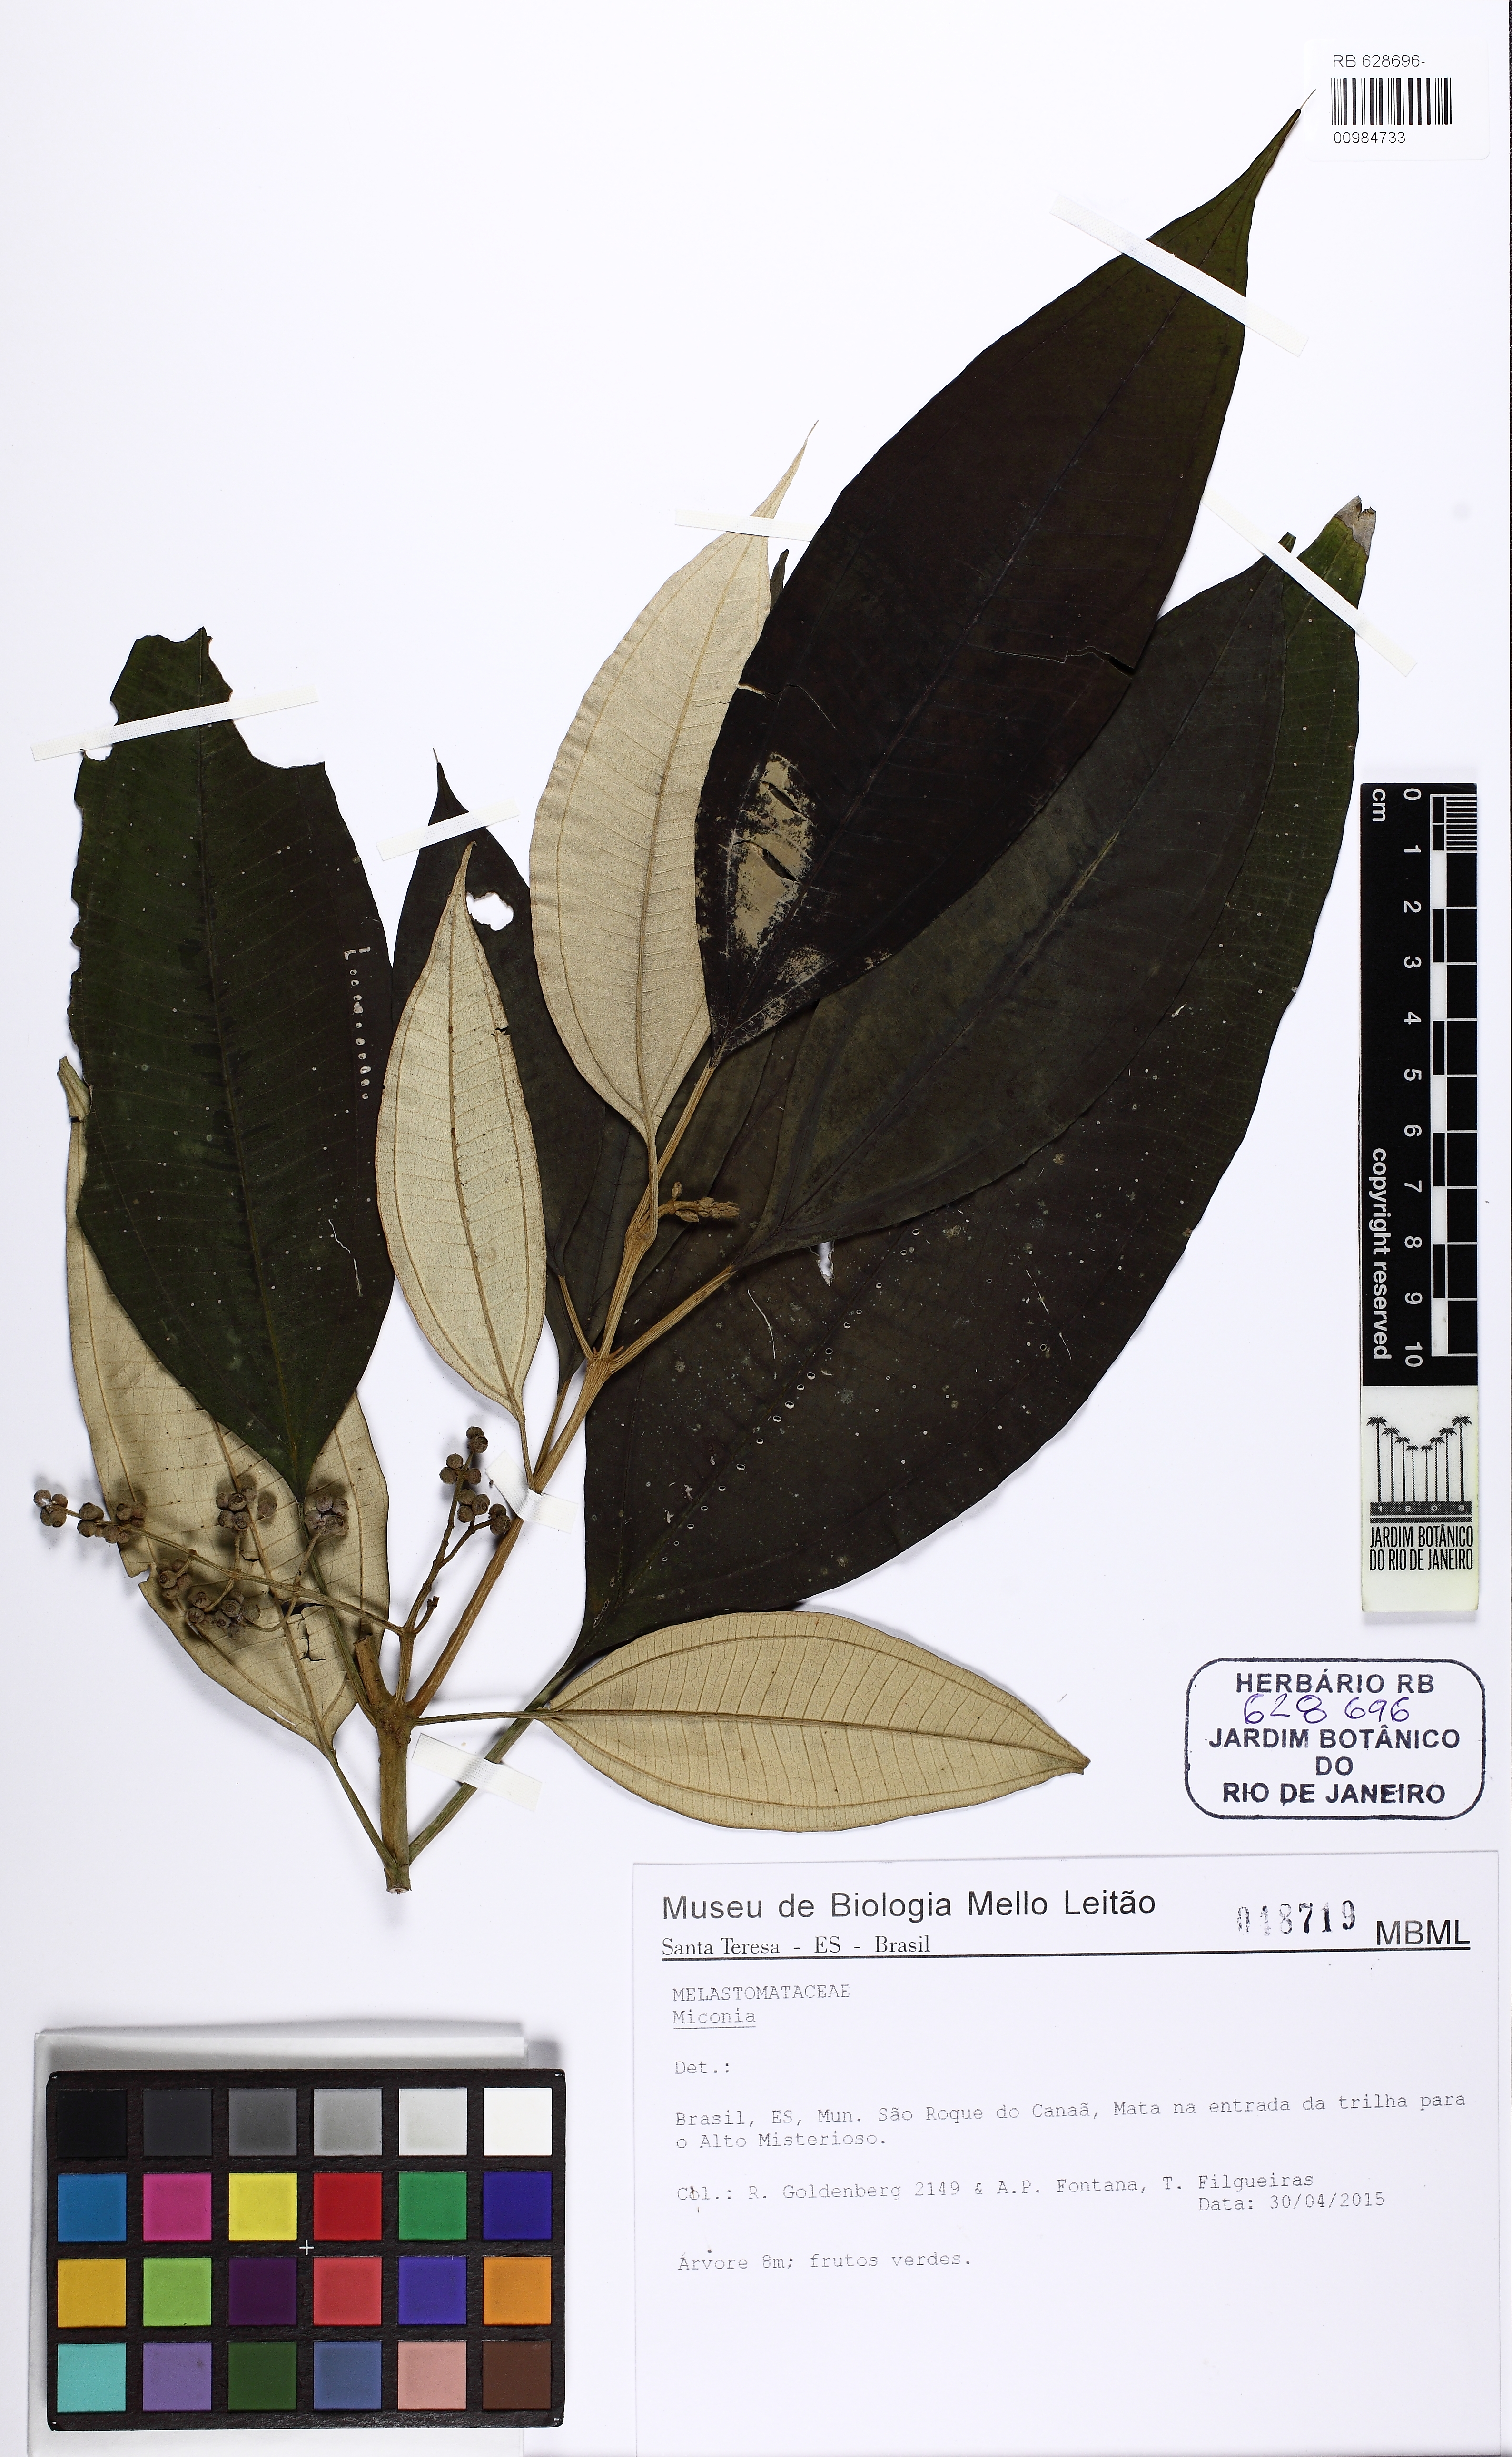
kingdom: Plantae
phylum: Tracheophyta
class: Magnoliopsida
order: Myrtales
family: Melastomataceae
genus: Miconia
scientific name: Miconia
